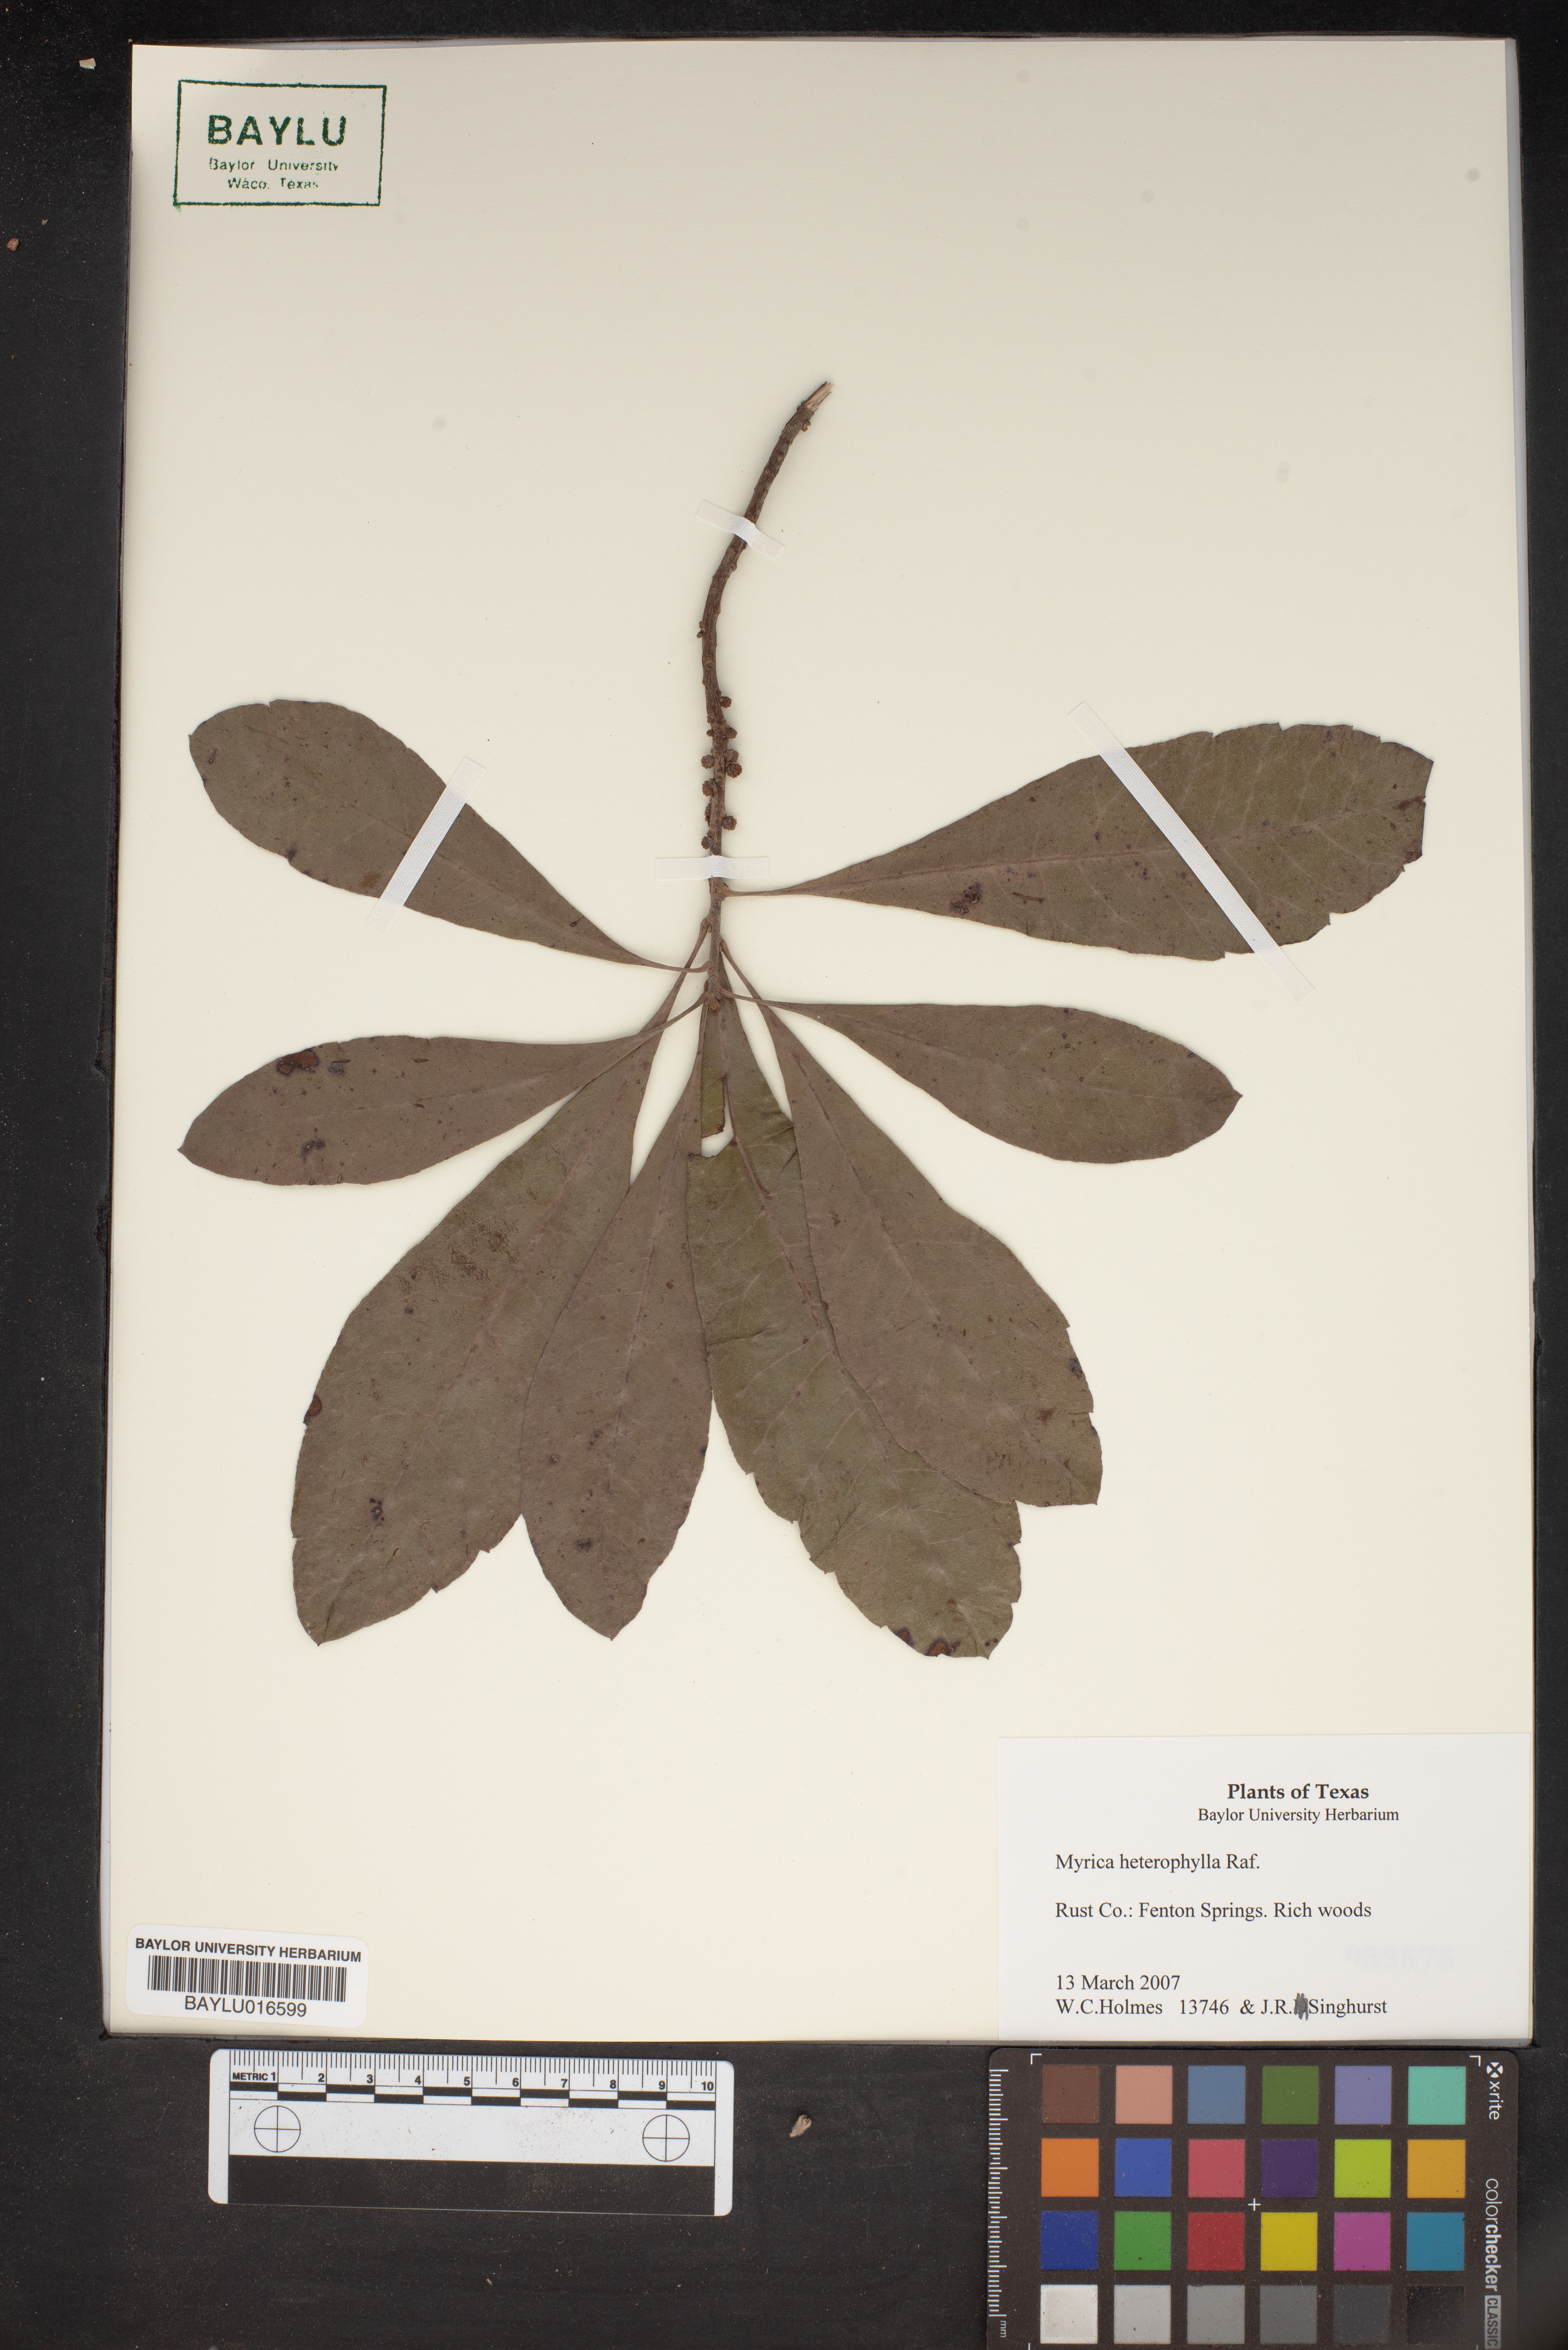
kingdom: Plantae
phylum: Tracheophyta
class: Magnoliopsida
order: Fagales
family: Myricaceae
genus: Morella
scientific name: Morella caroliniensis
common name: Evergreen bayberry
